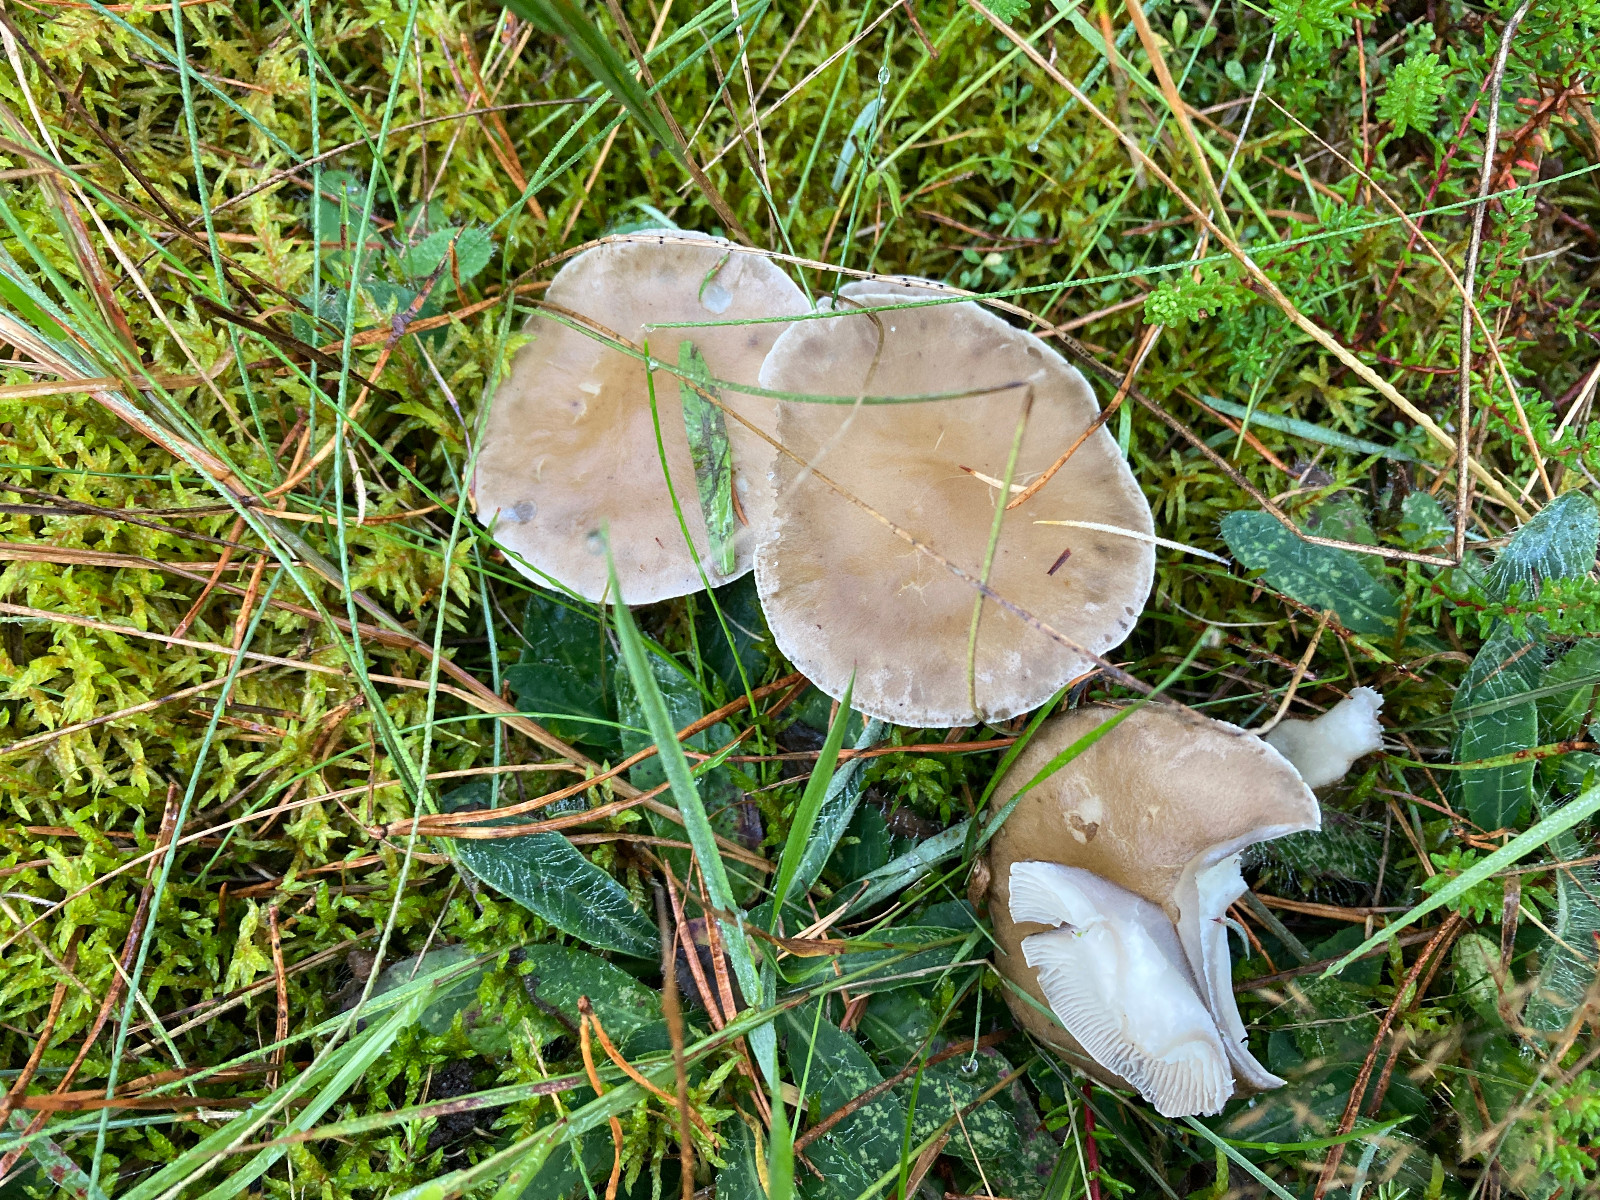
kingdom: Fungi
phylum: Basidiomycota
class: Agaricomycetes
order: Agaricales
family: Hygrophoraceae
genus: Ampulloclitocybe
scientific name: Ampulloclitocybe clavipes
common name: køllefod
